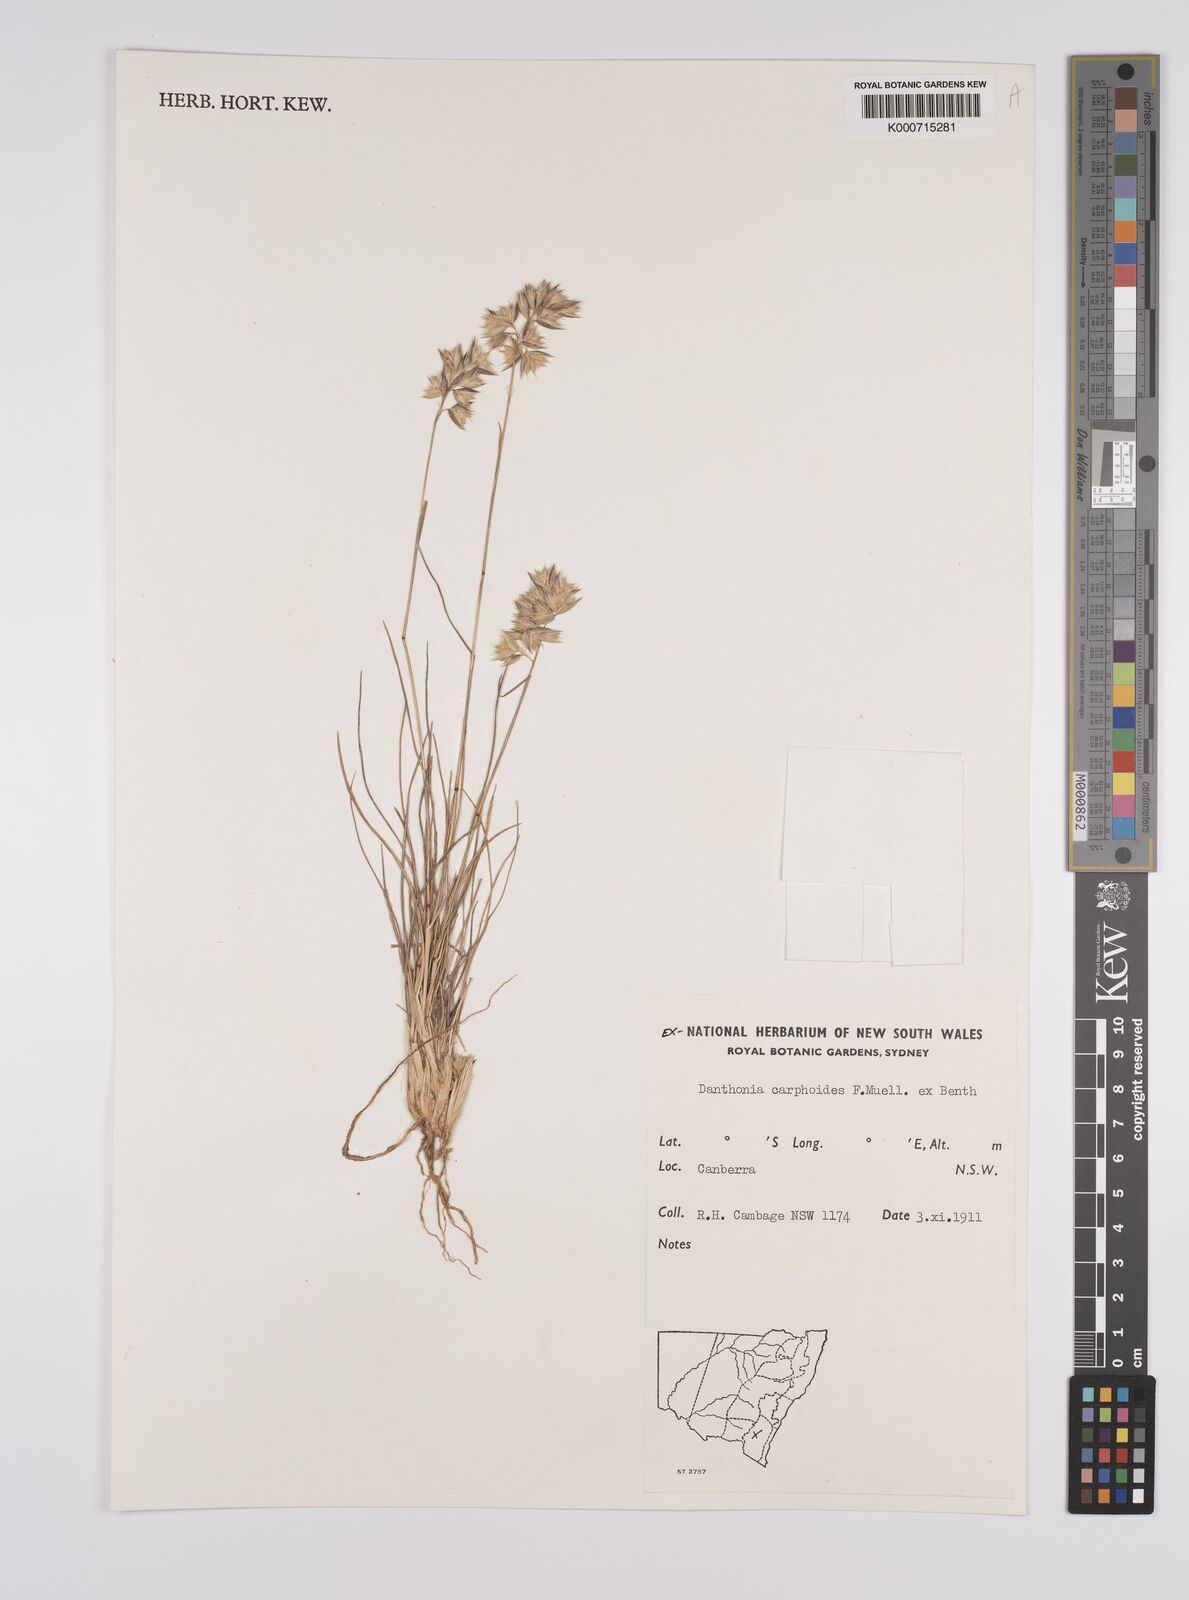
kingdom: Plantae
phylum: Tracheophyta
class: Liliopsida
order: Poales
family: Poaceae
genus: Rytidosperma
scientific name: Rytidosperma carphoides
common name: Short wallaby grass
